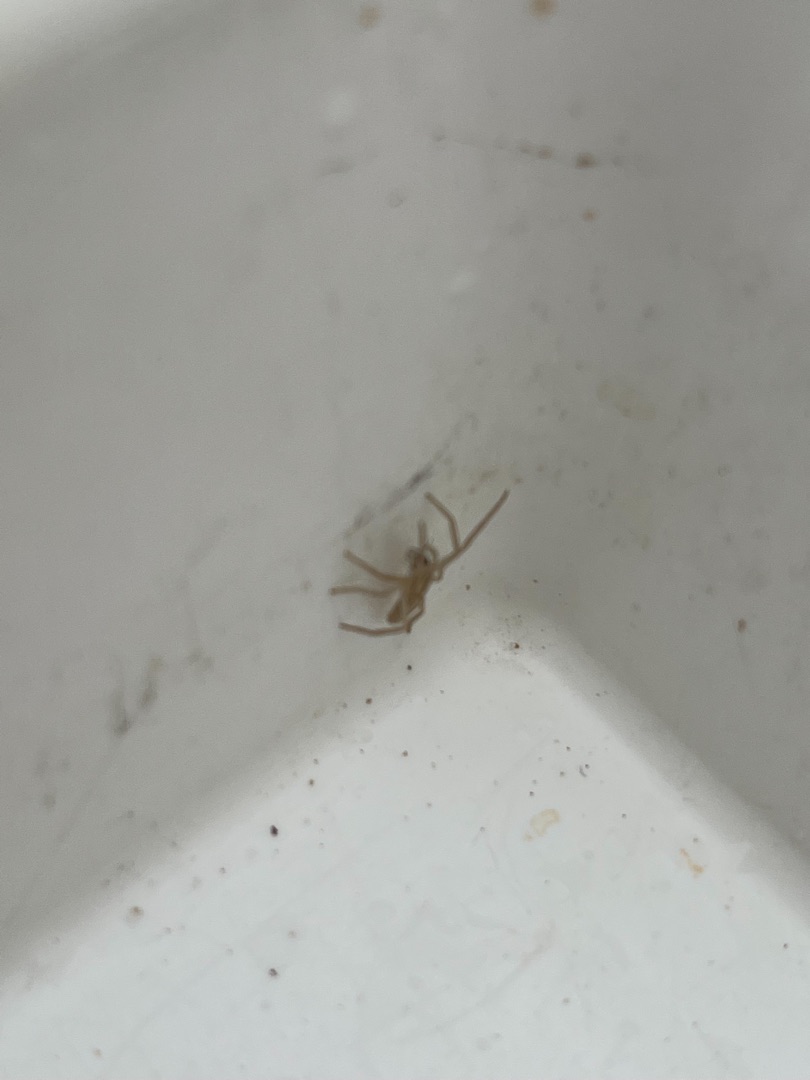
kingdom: Animalia
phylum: Arthropoda
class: Arachnida
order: Araneae
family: Philodromidae
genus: Tibellus
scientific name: Tibellus
